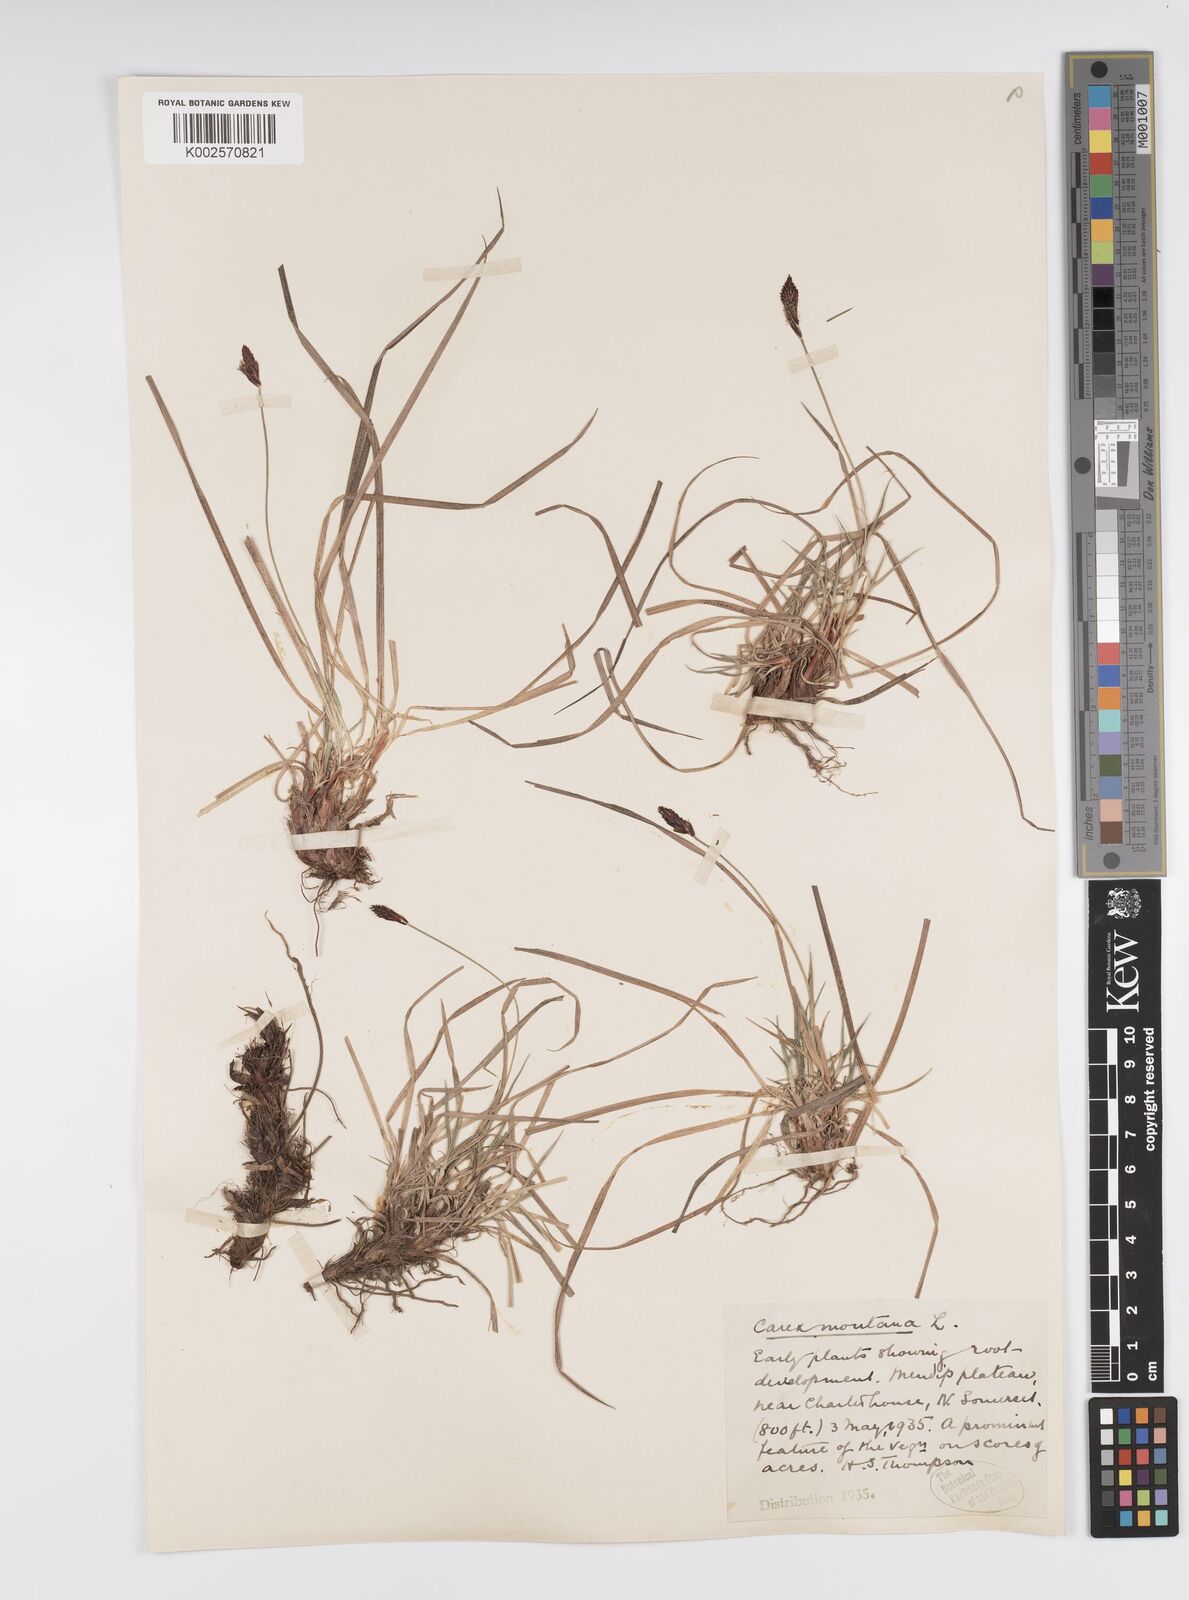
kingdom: Plantae
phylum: Tracheophyta
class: Liliopsida
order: Poales
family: Cyperaceae
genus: Carex
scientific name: Carex montana
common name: Soft-leaved sedge
